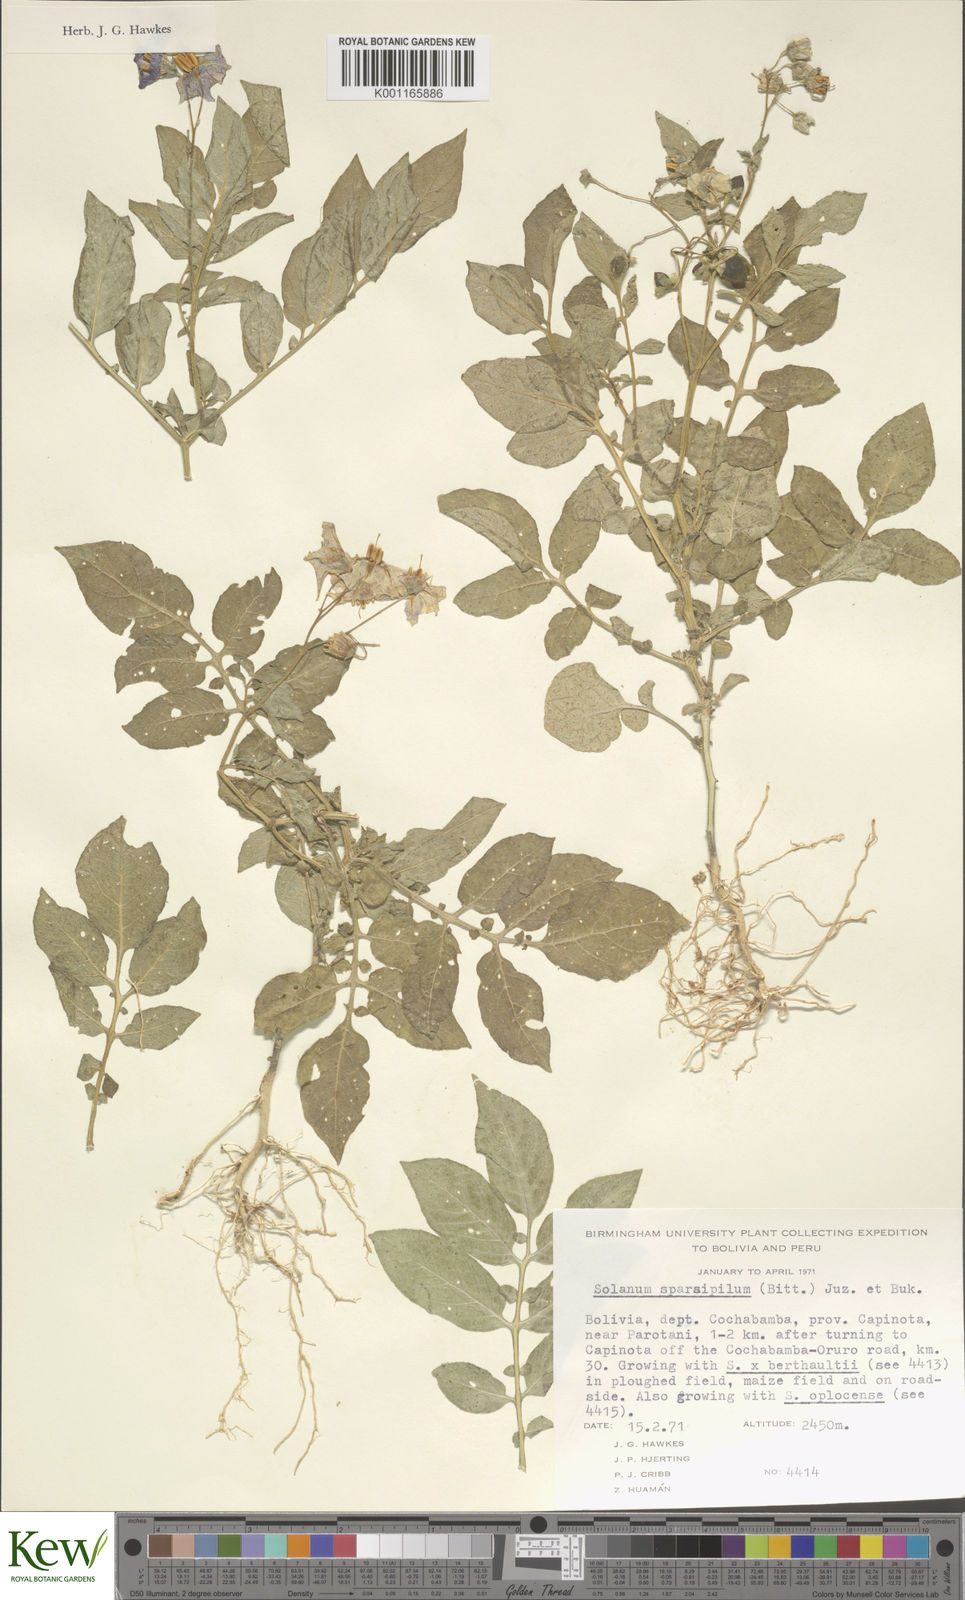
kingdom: Plantae
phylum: Tracheophyta
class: Magnoliopsida
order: Solanales
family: Solanaceae
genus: Solanum
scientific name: Solanum brevicaule
